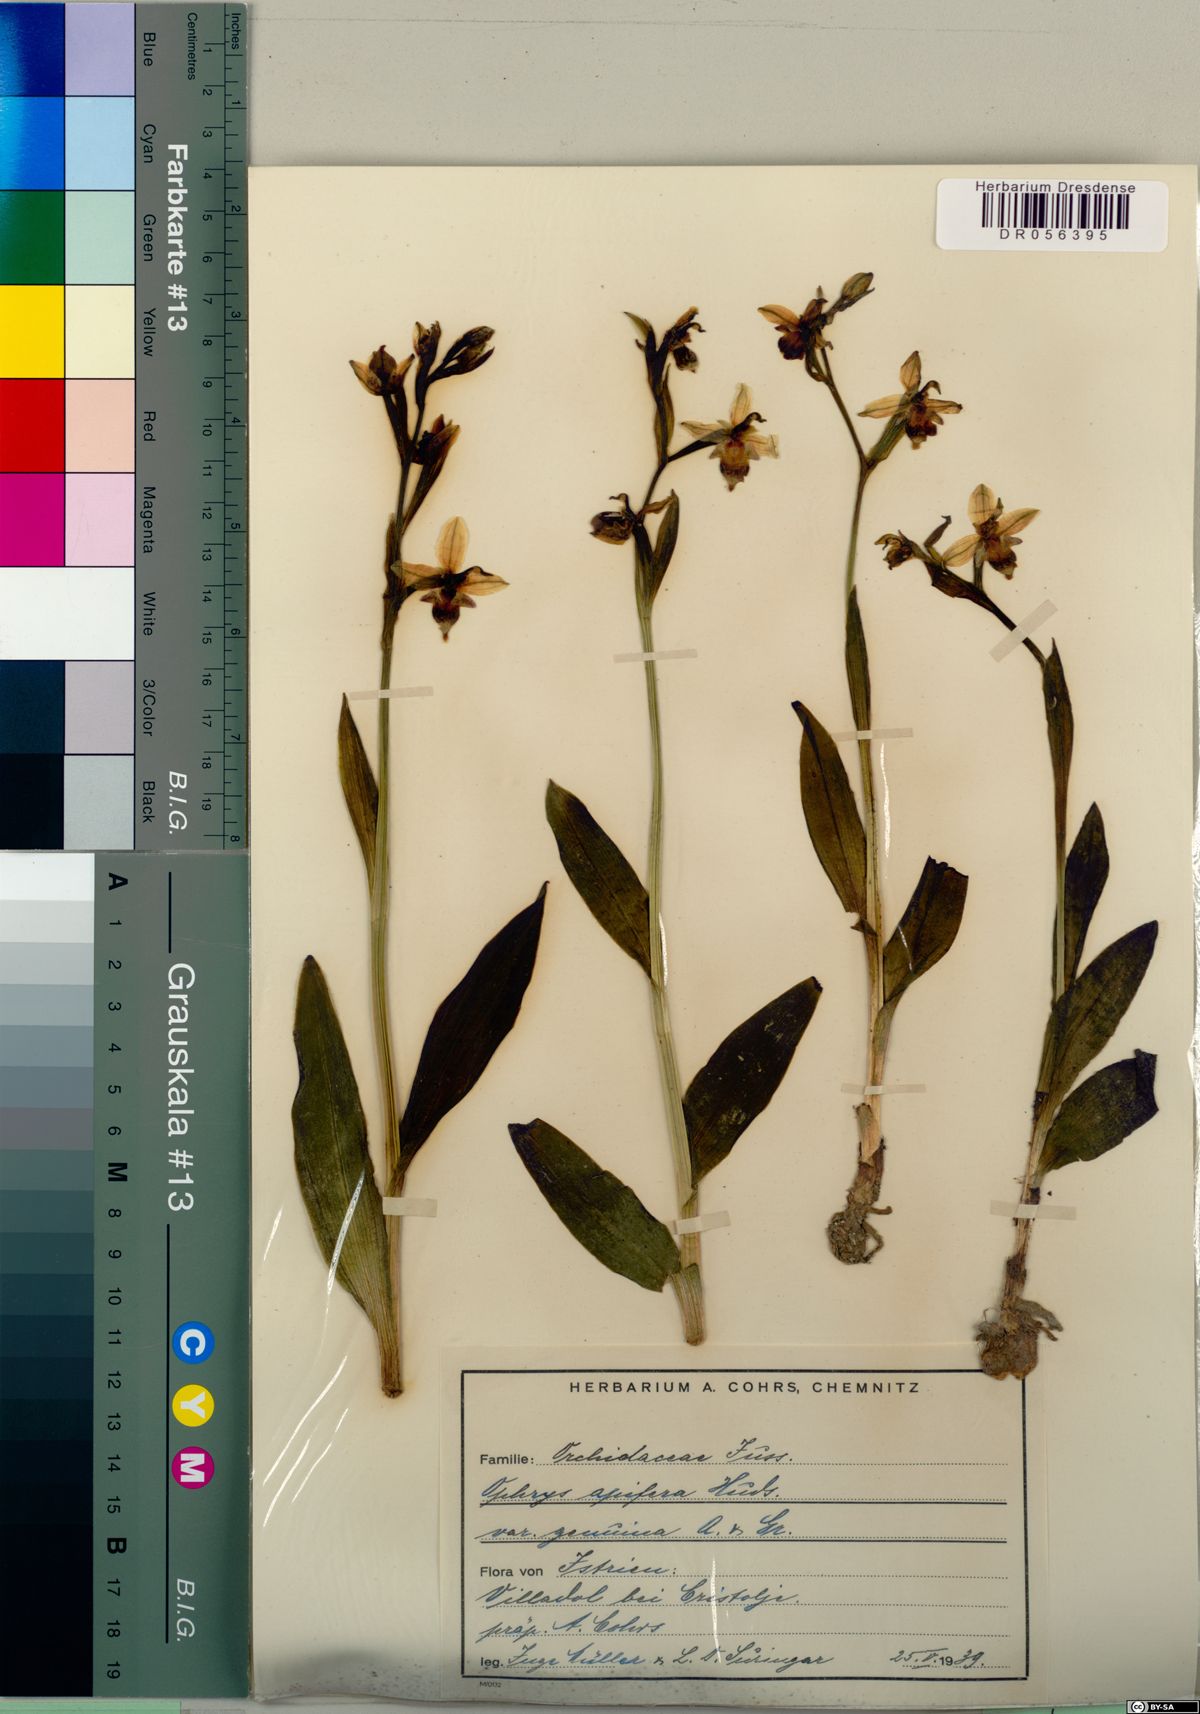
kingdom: Plantae
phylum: Tracheophyta
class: Liliopsida
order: Asparagales
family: Orchidaceae
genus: Ophrys
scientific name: Ophrys apifera
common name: Bee orchid
